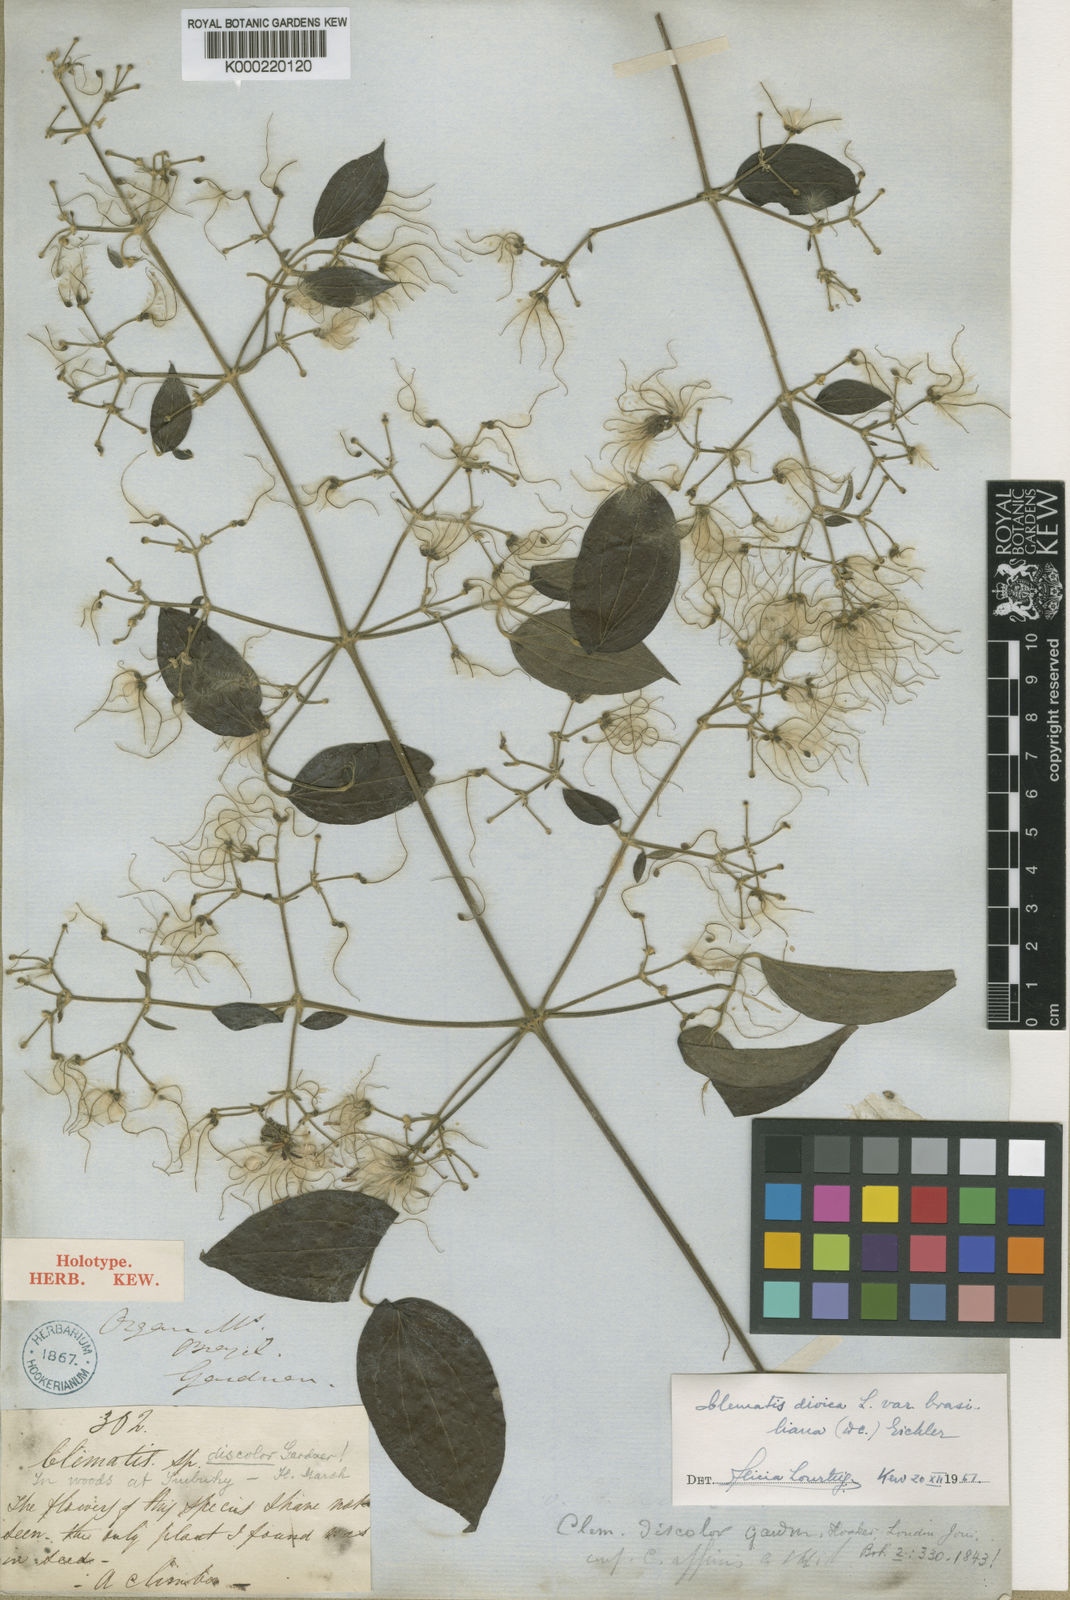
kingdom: Plantae
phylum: Tracheophyta
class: Magnoliopsida
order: Ranunculales
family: Ranunculaceae
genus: Clematis
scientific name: Clematis montevidensis
